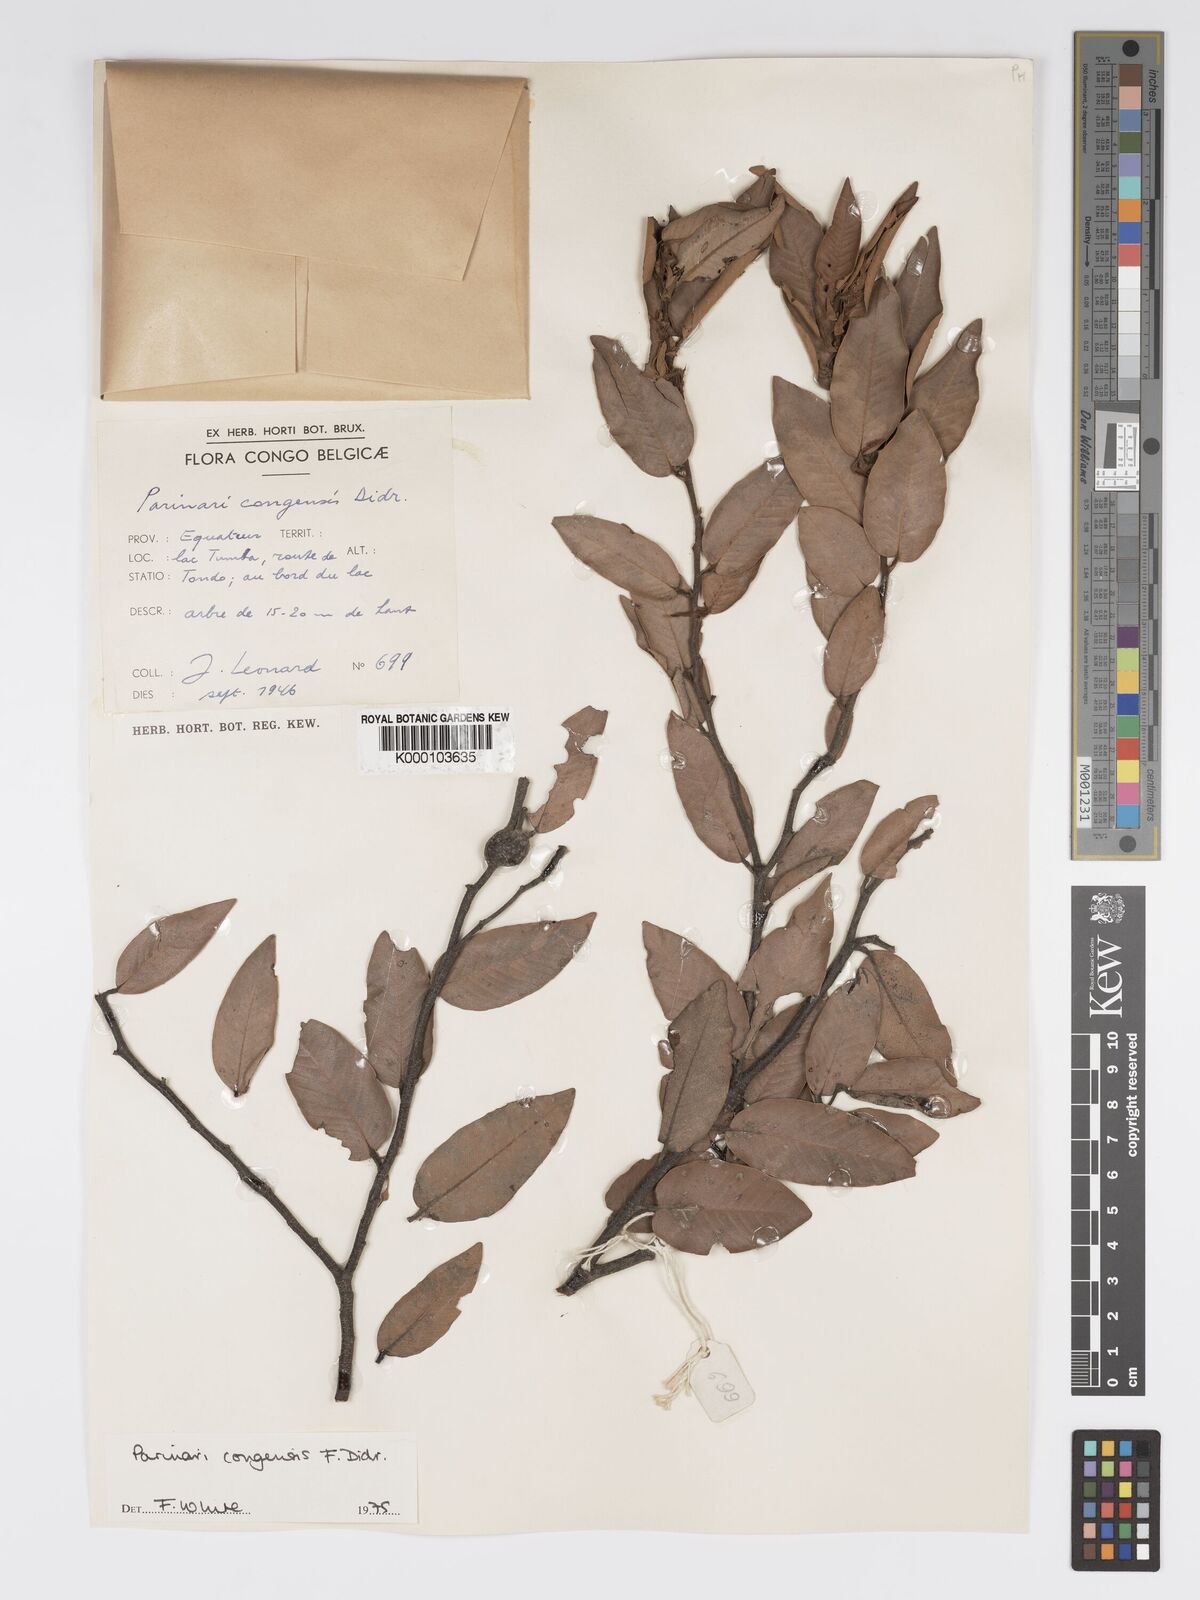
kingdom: Plantae
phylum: Tracheophyta
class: Magnoliopsida
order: Malpighiales
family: Chrysobalanaceae
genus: Parinari
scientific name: Parinari congensis
